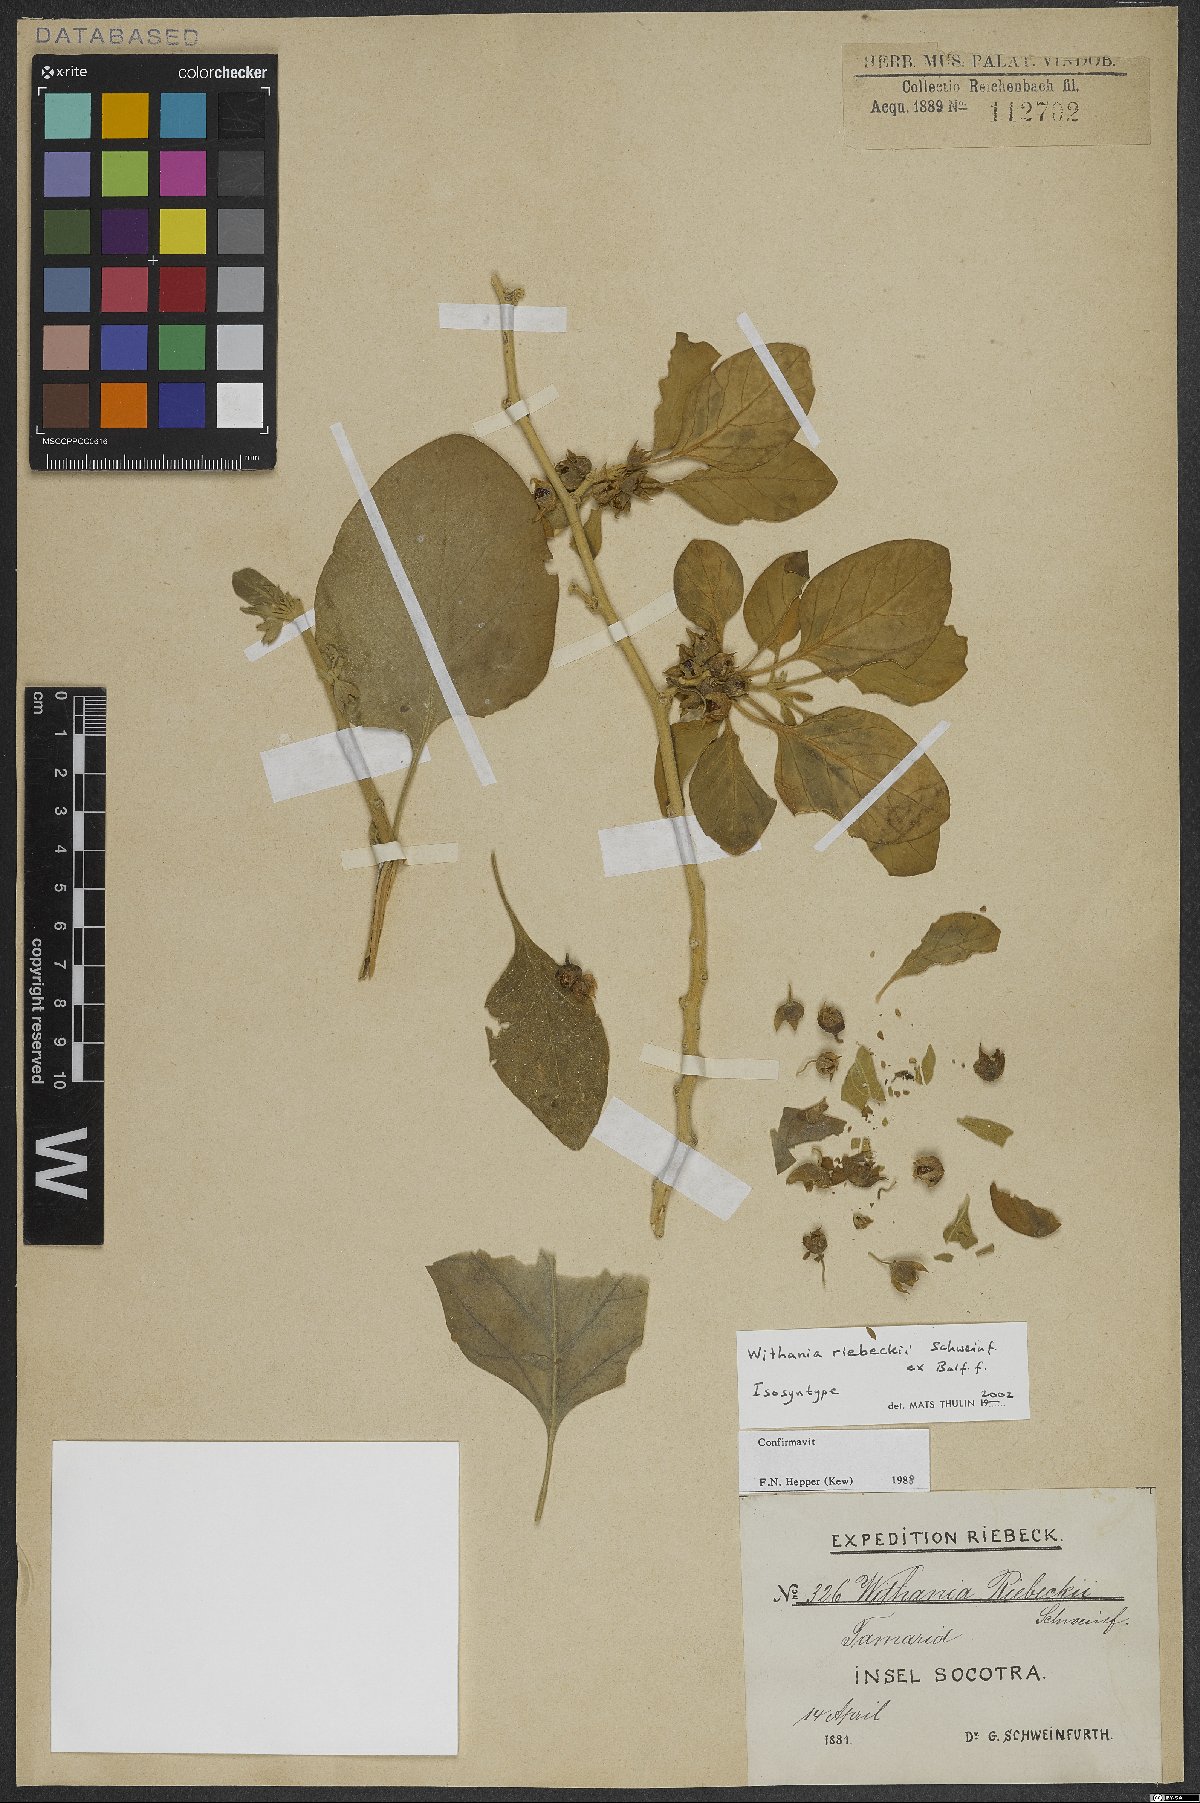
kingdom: Plantae
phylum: Tracheophyta
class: Magnoliopsida
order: Solanales
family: Solanaceae
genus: Withania
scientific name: Withania riebeckii
